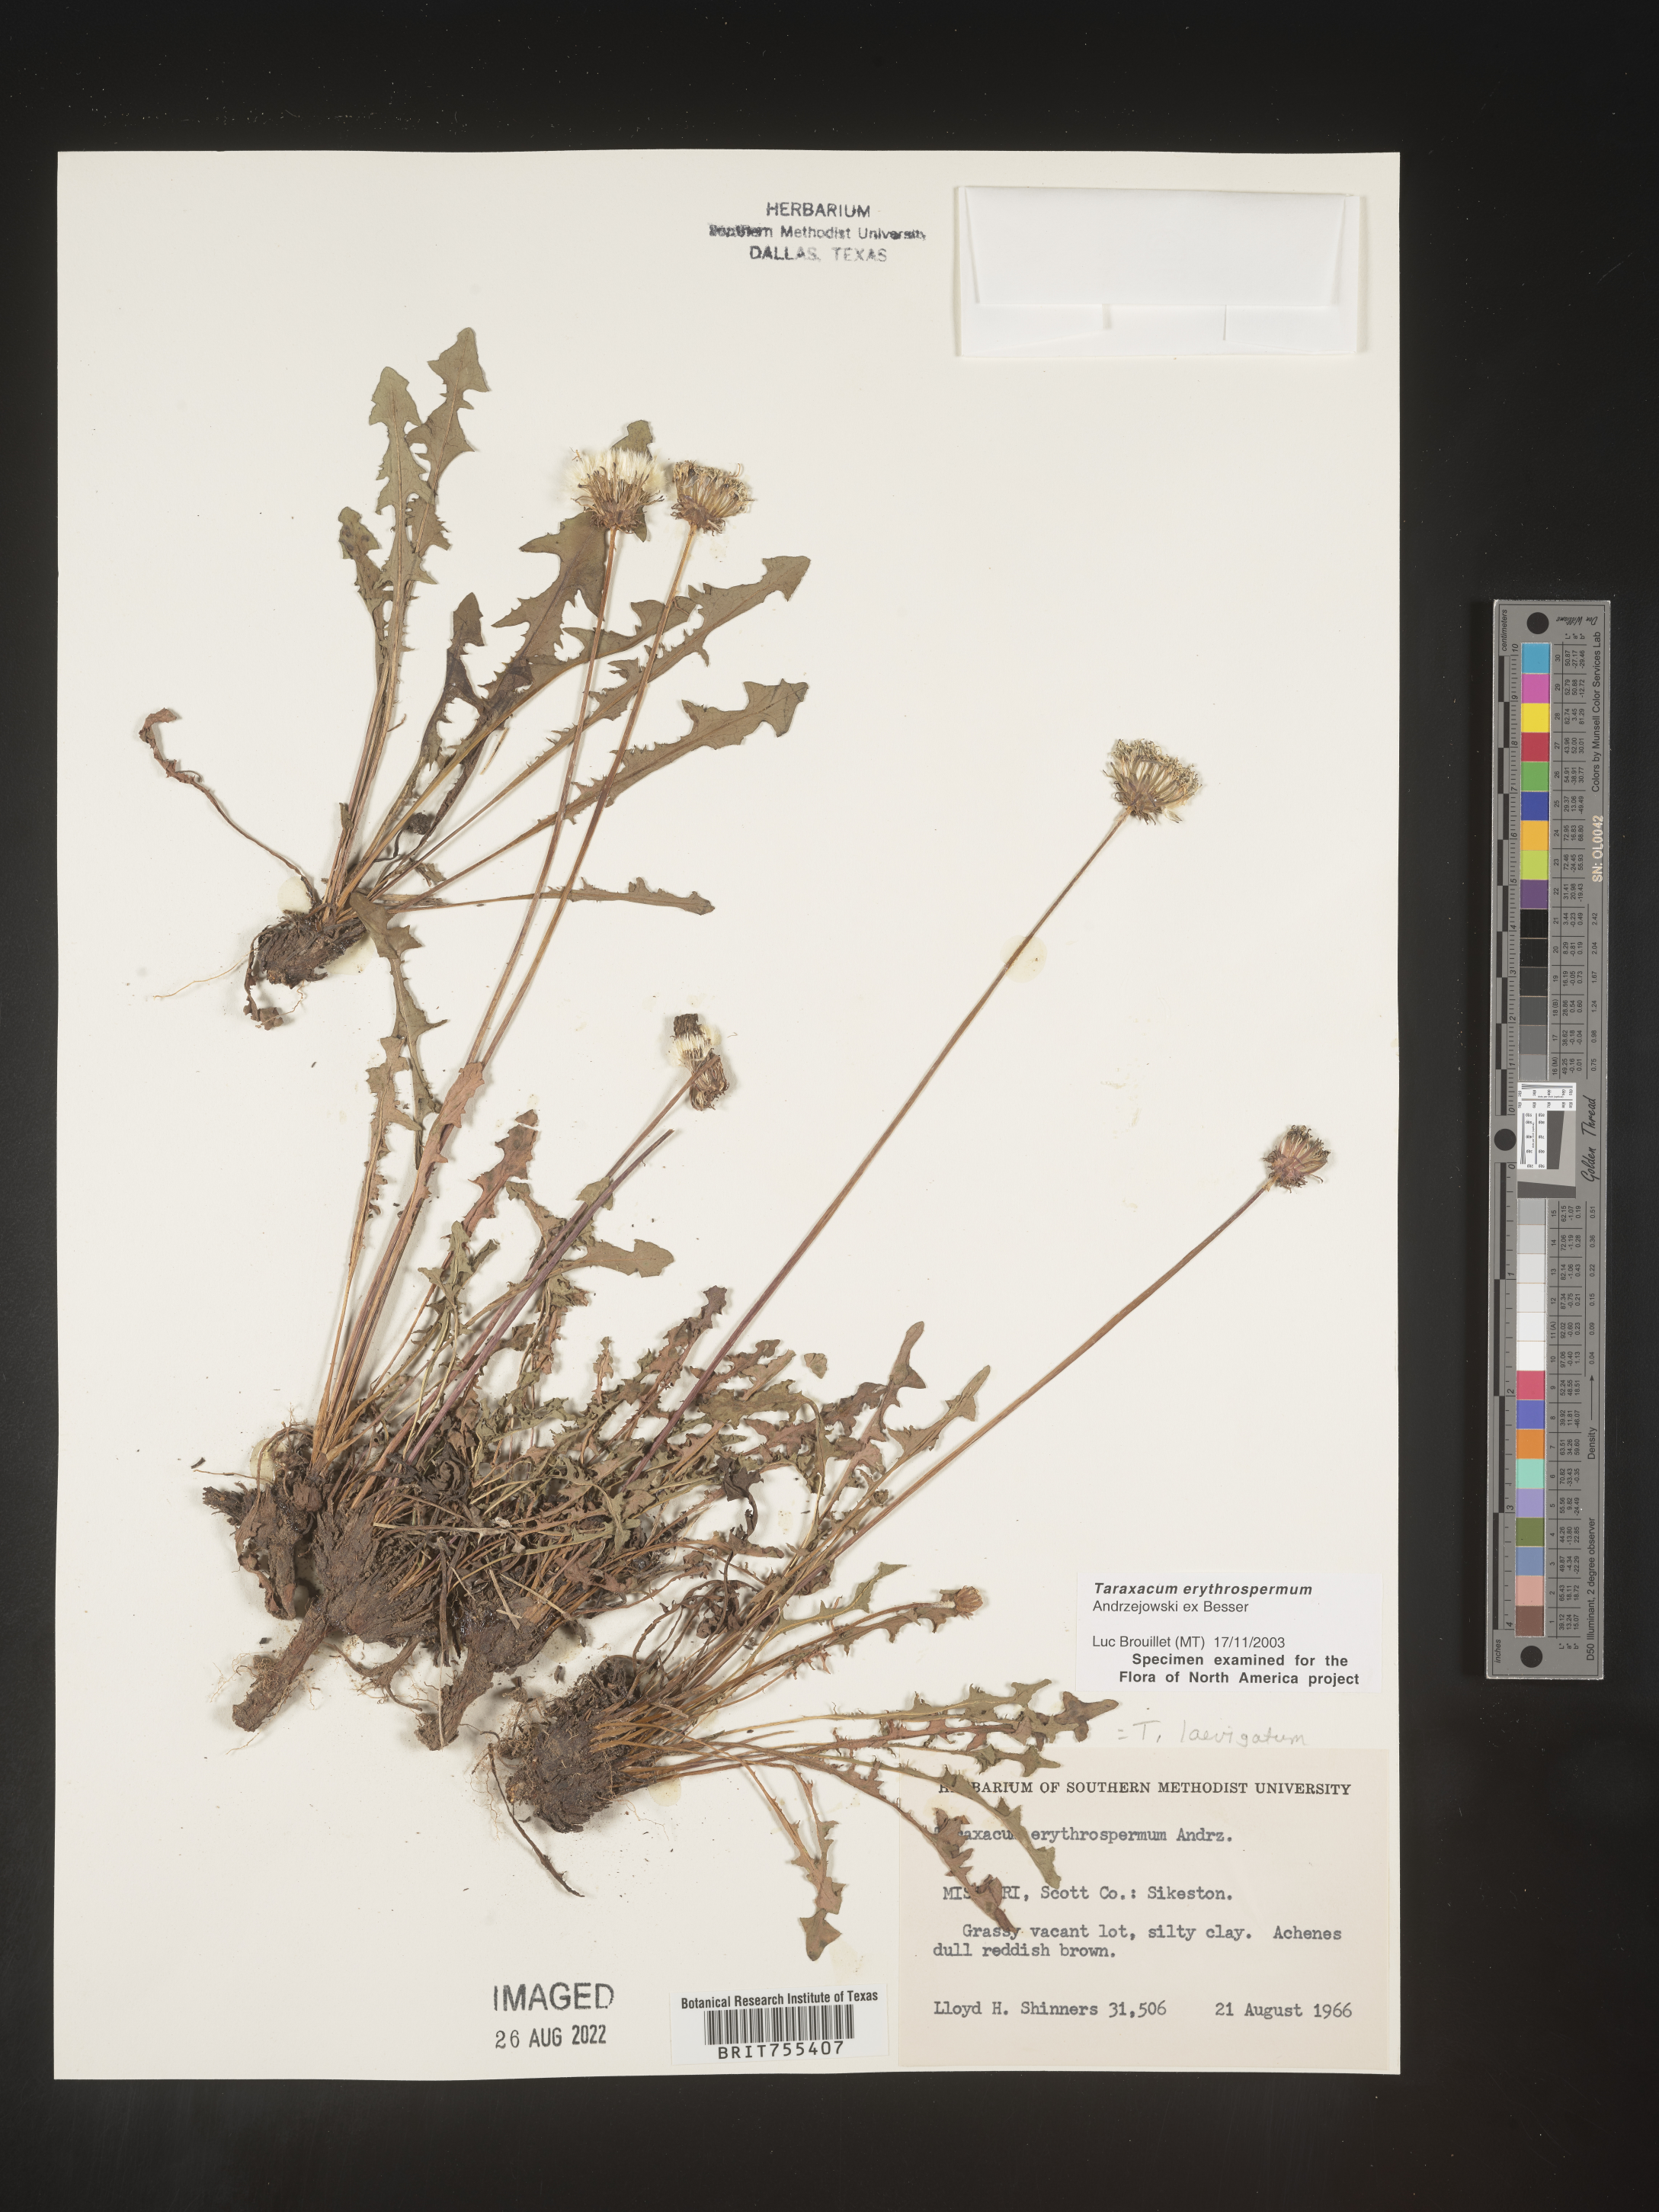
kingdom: Plantae
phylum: Tracheophyta
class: Magnoliopsida
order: Asterales
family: Asteraceae
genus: Taraxacum
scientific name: Taraxacum erythrospermum
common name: Rock dandelion
